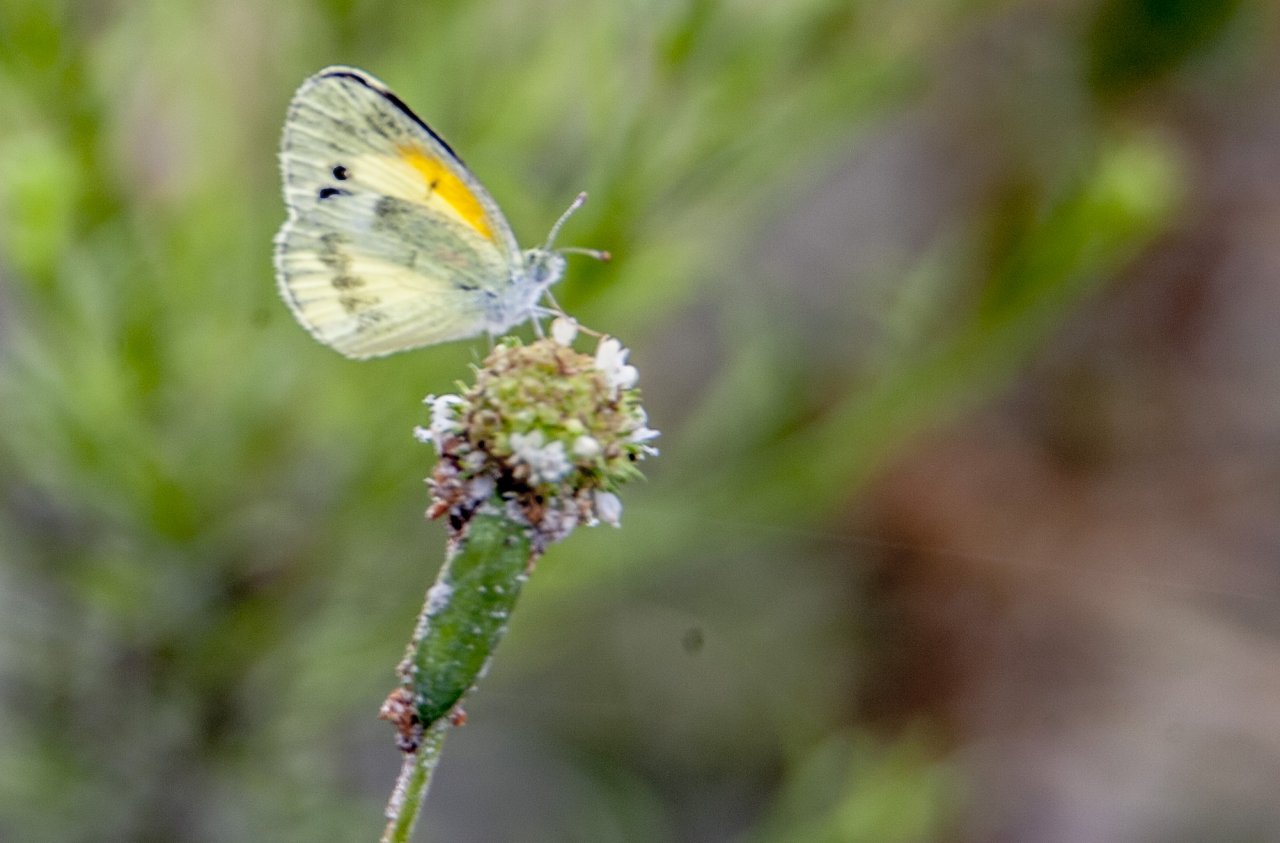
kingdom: Animalia
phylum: Arthropoda
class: Insecta
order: Lepidoptera
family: Pieridae
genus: Nathalis
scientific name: Nathalis iole
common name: Dainty Sulphur
